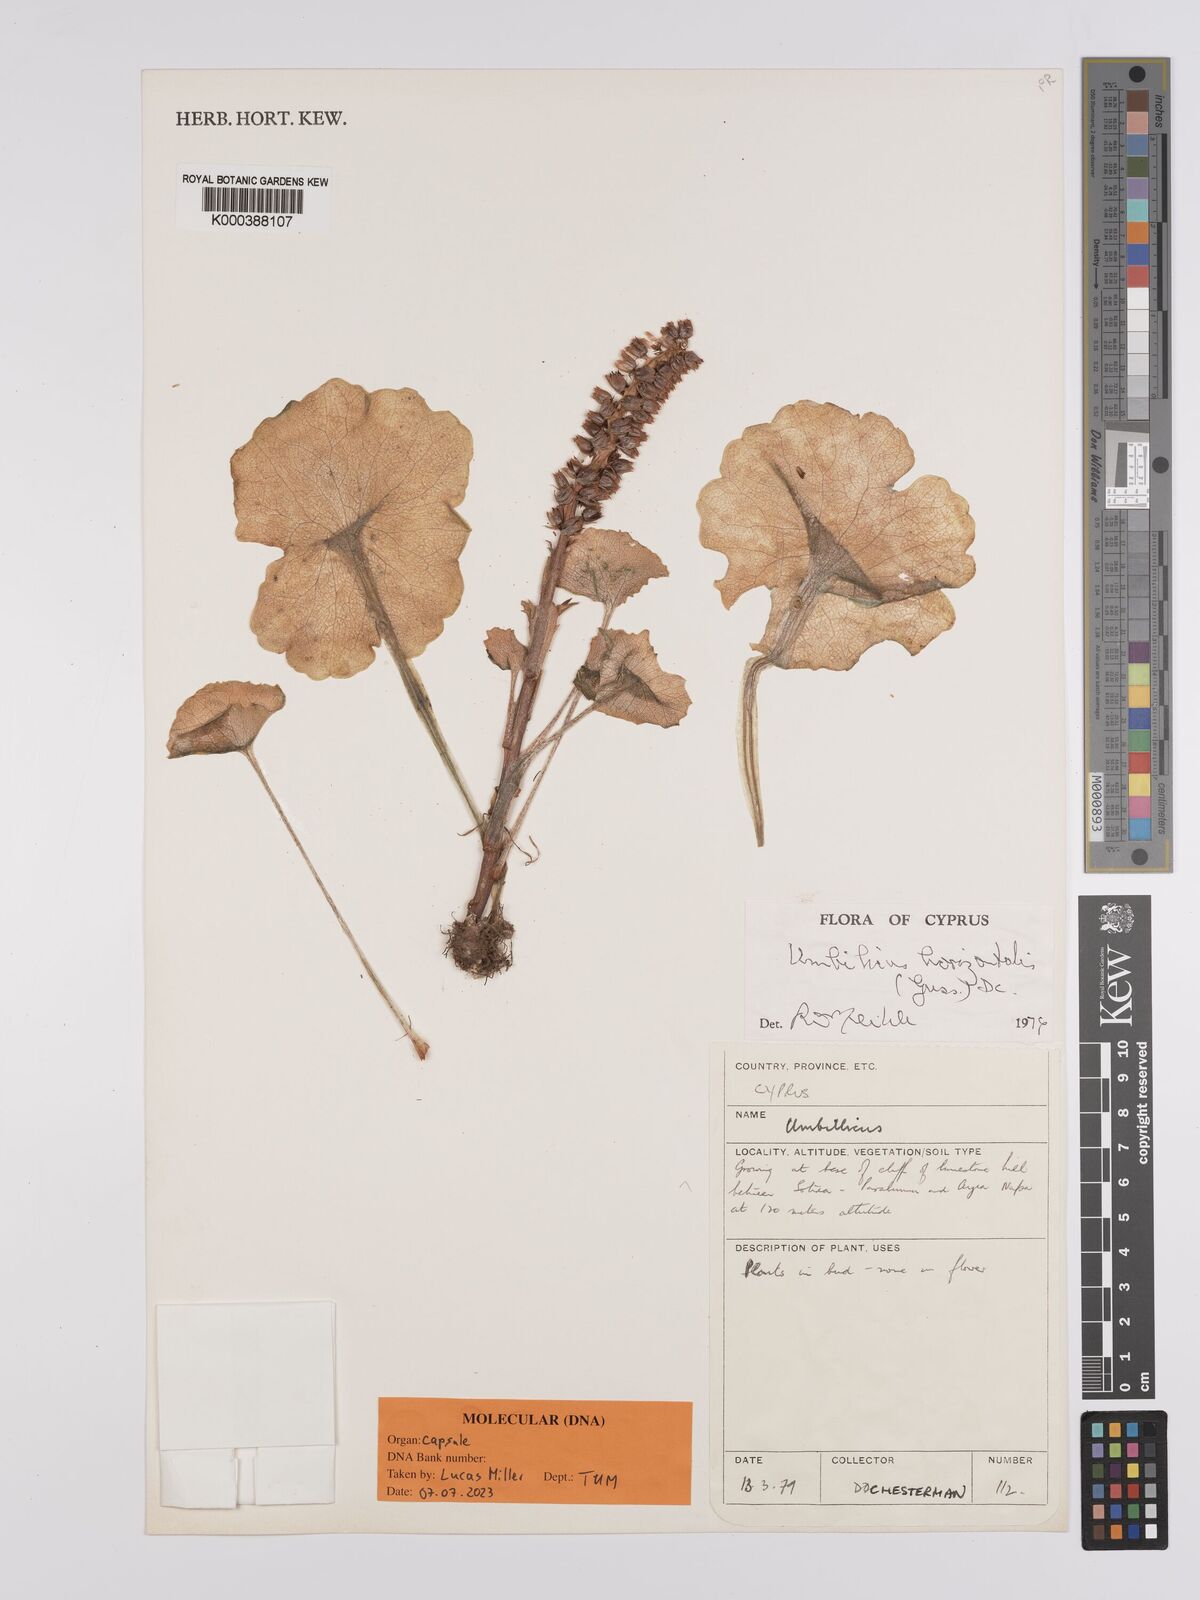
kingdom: Plantae
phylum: Tracheophyta
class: Magnoliopsida
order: Saxifragales
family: Crassulaceae
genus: Umbilicus
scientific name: Umbilicus horizontalis
